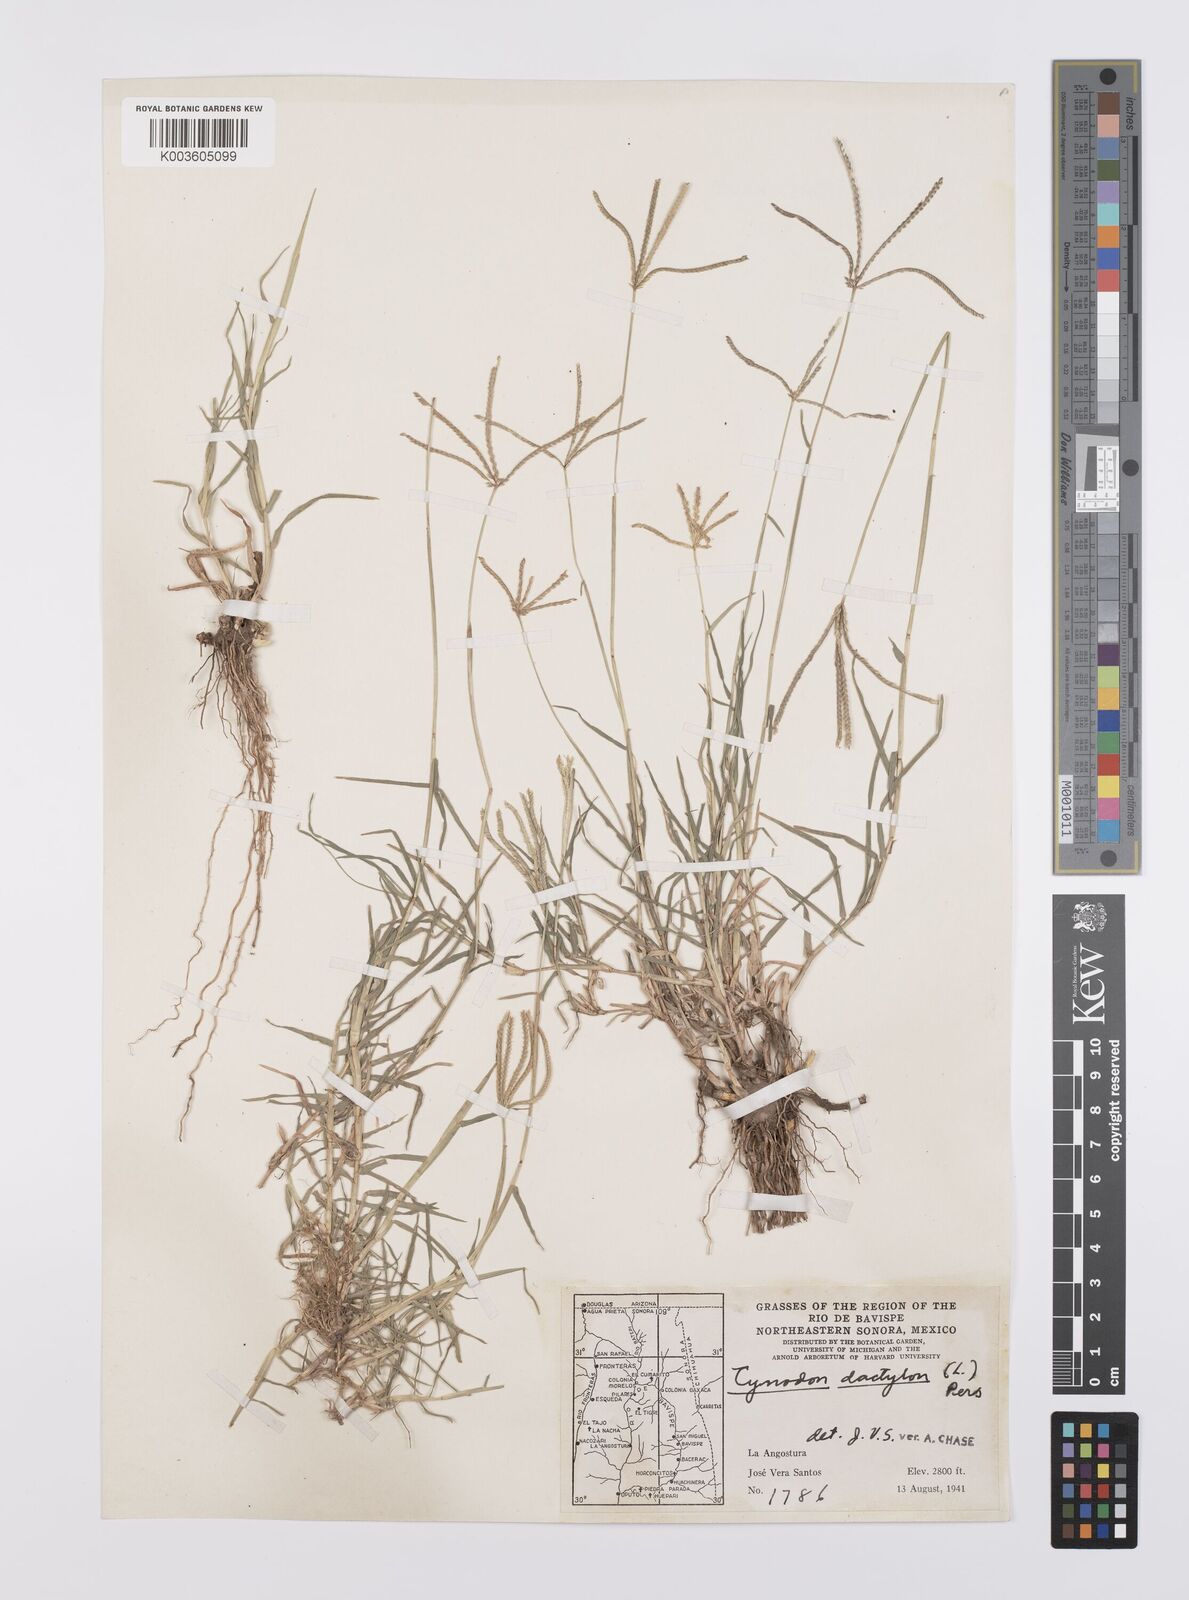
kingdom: Plantae
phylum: Tracheophyta
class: Liliopsida
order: Poales
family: Poaceae
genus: Cynodon
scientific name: Cynodon dactylon
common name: Bermuda grass
